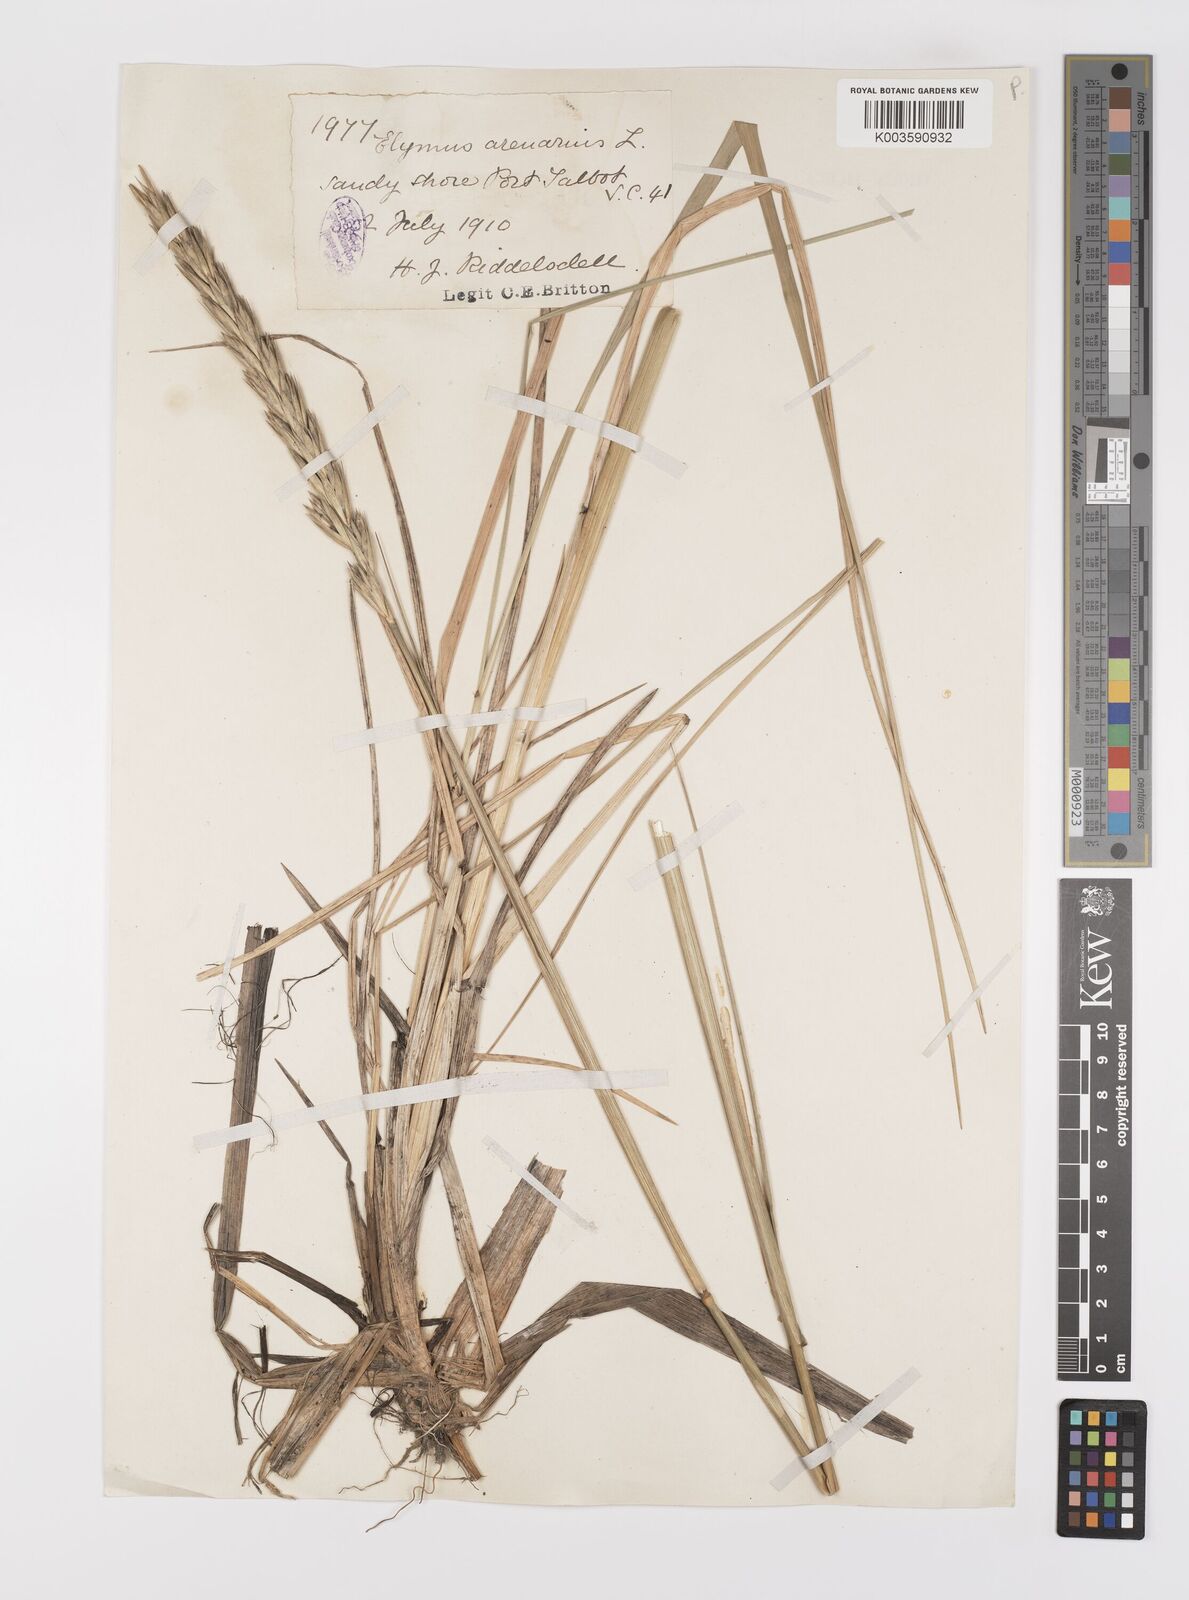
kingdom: Plantae
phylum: Tracheophyta
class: Liliopsida
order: Poales
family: Poaceae
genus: Leymus
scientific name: Leymus
